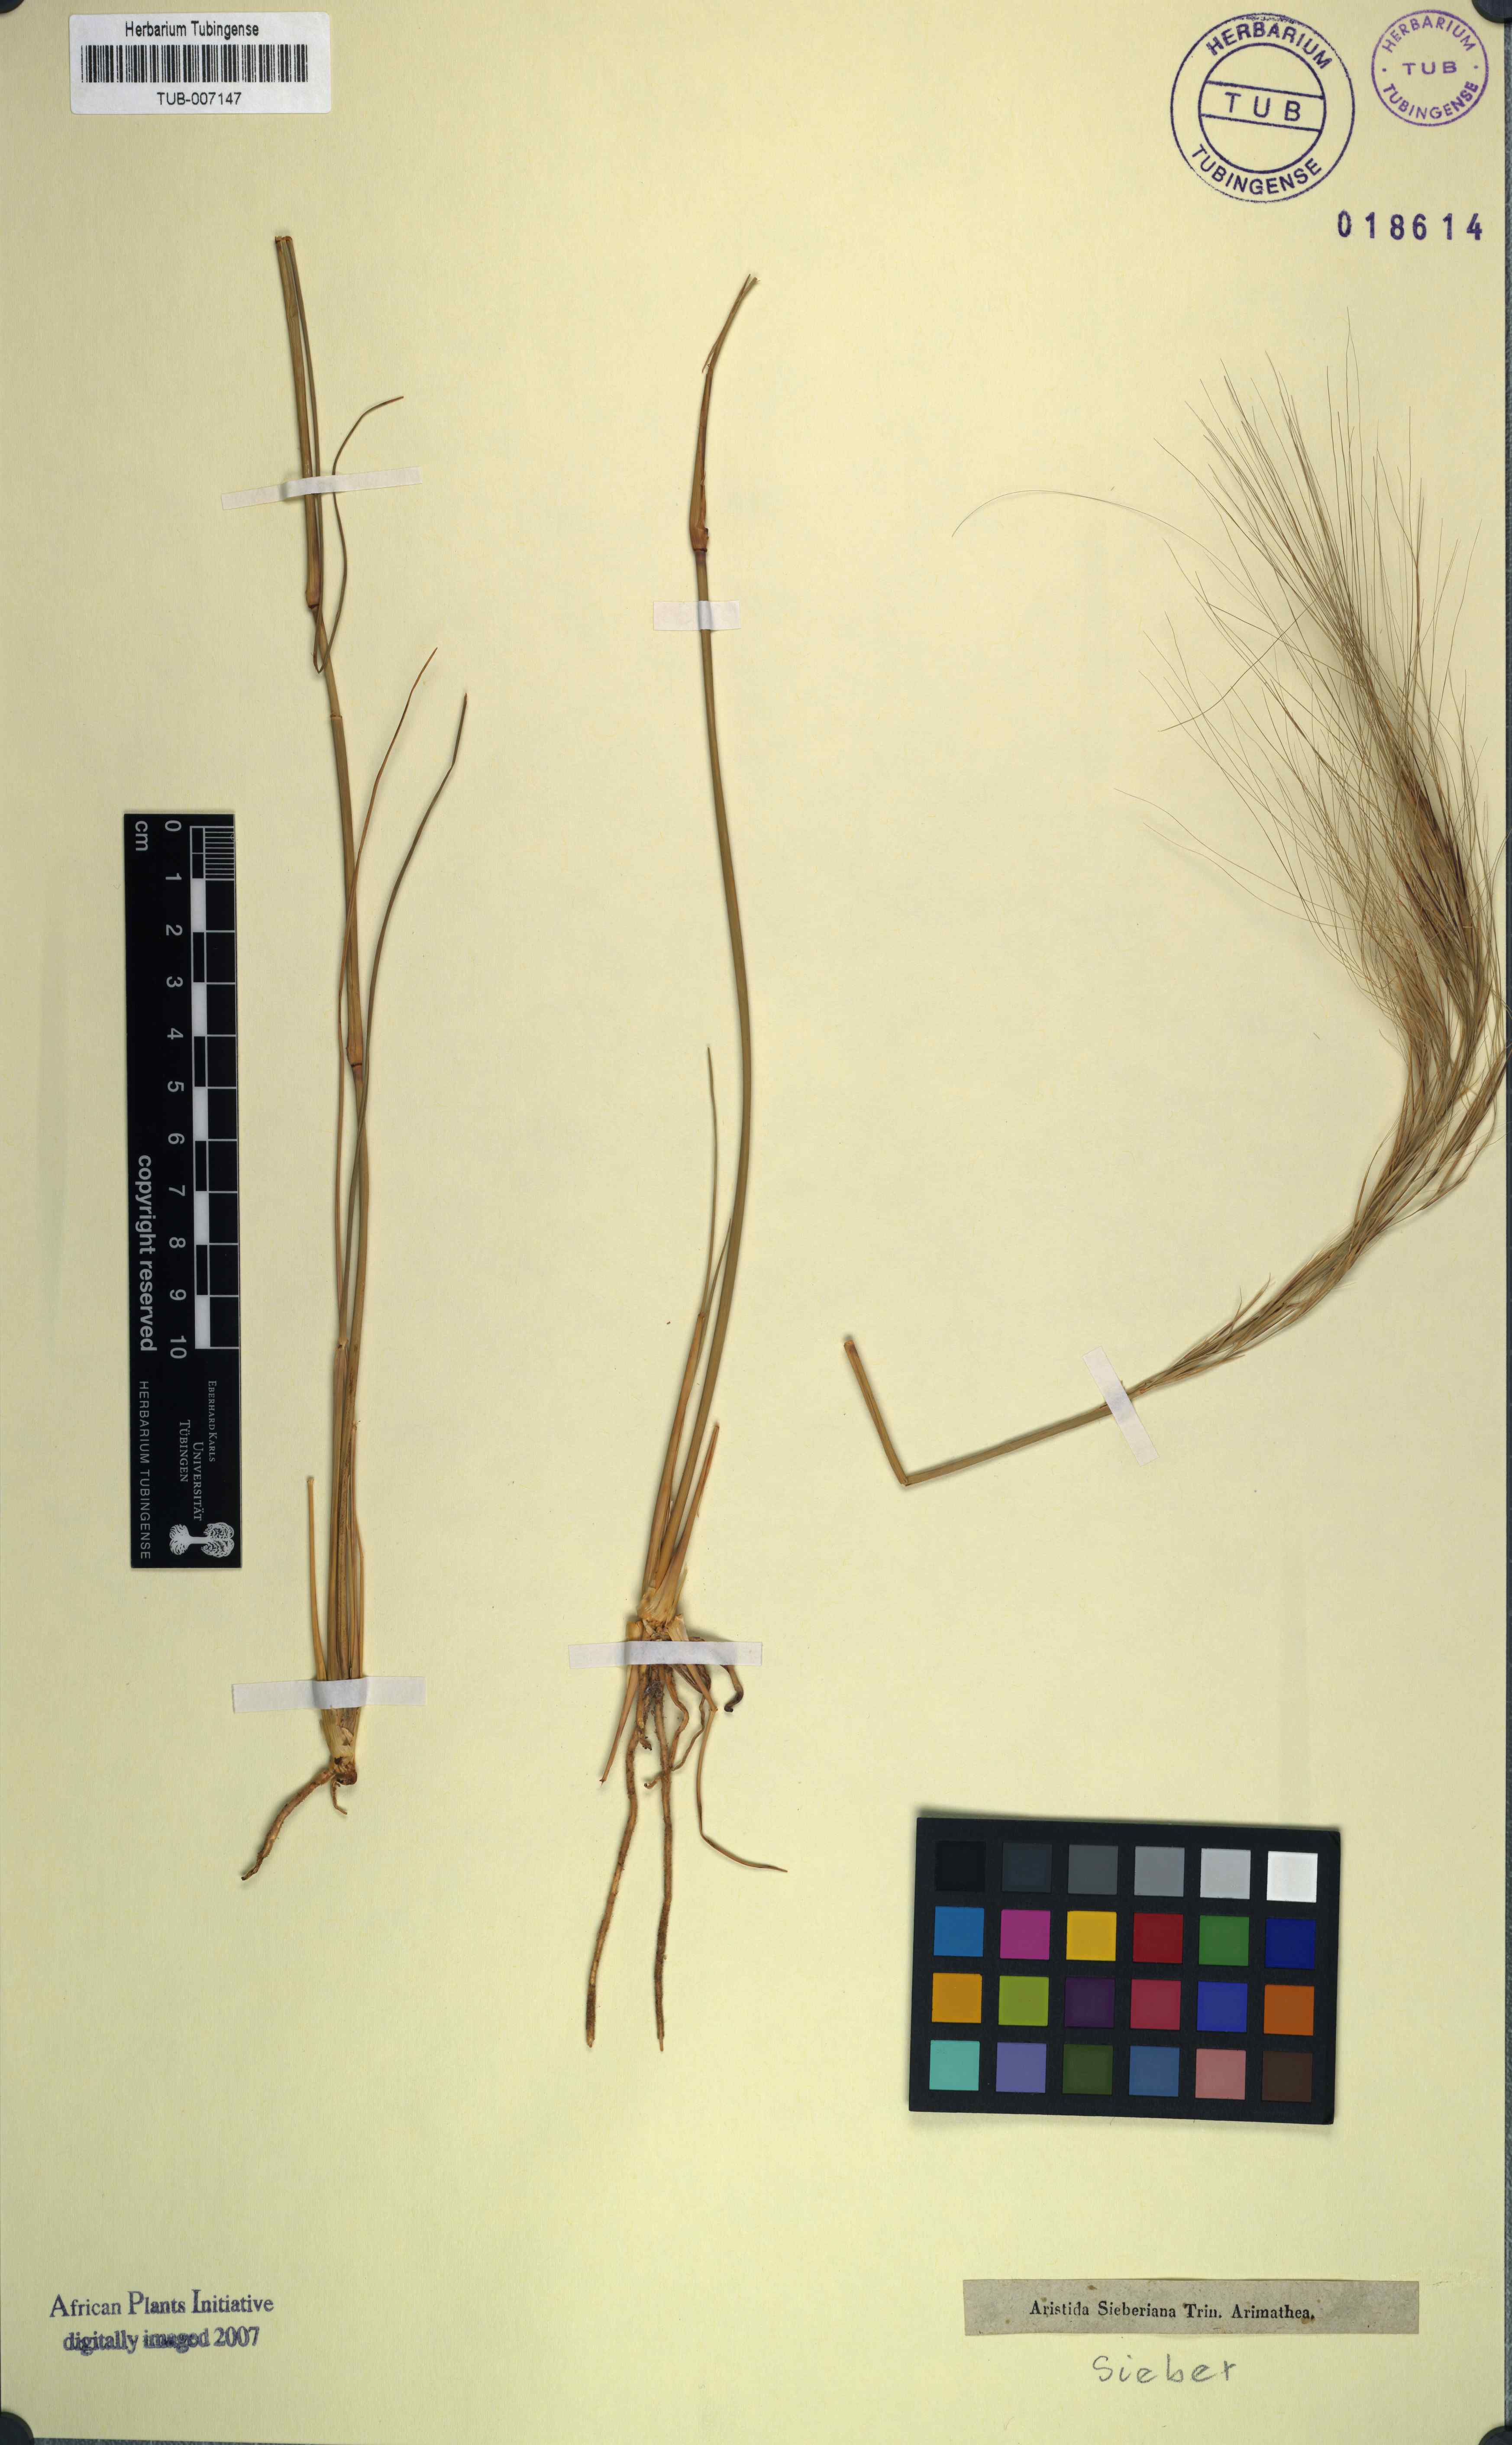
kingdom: Plantae
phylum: Tracheophyta
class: Liliopsida
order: Poales
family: Poaceae
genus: Aristida
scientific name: Aristida sieberiana
